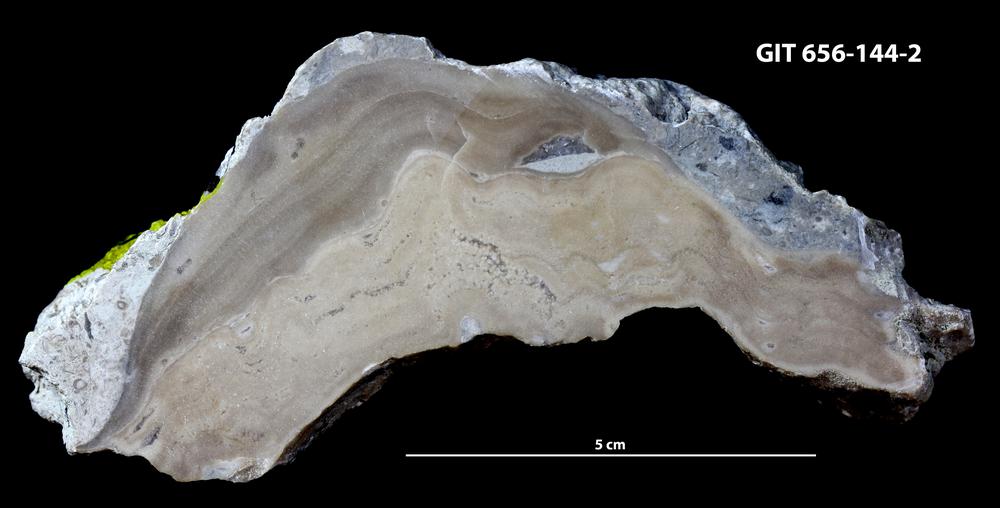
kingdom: Animalia
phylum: Porifera
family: Stromatoporidae
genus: Stromatopora
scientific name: Stromatopora
